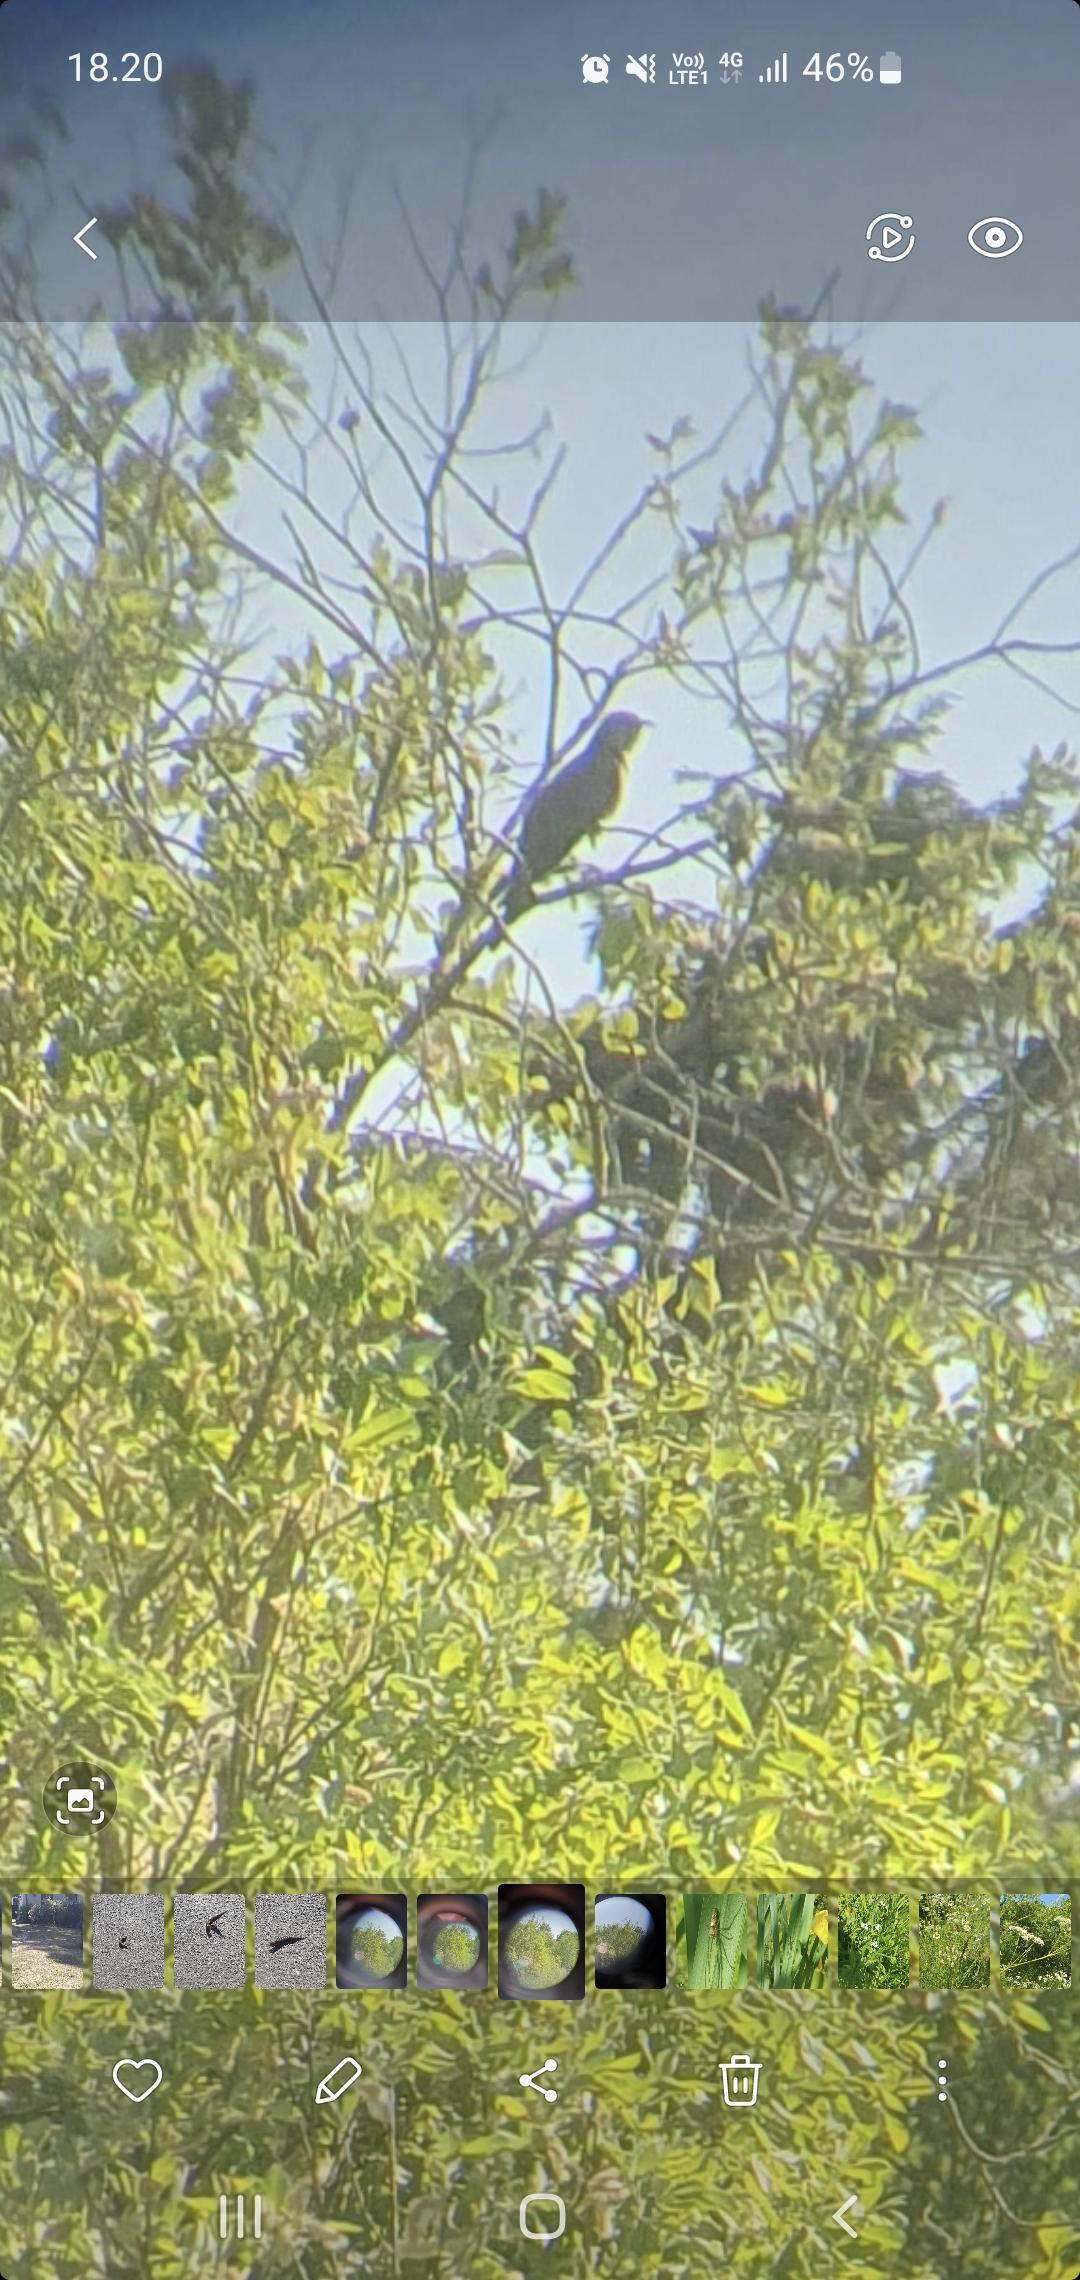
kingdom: Animalia
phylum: Chordata
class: Aves
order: Cuculiformes
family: Cuculidae
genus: Cuculus
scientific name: Cuculus canorus
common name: Gøg
